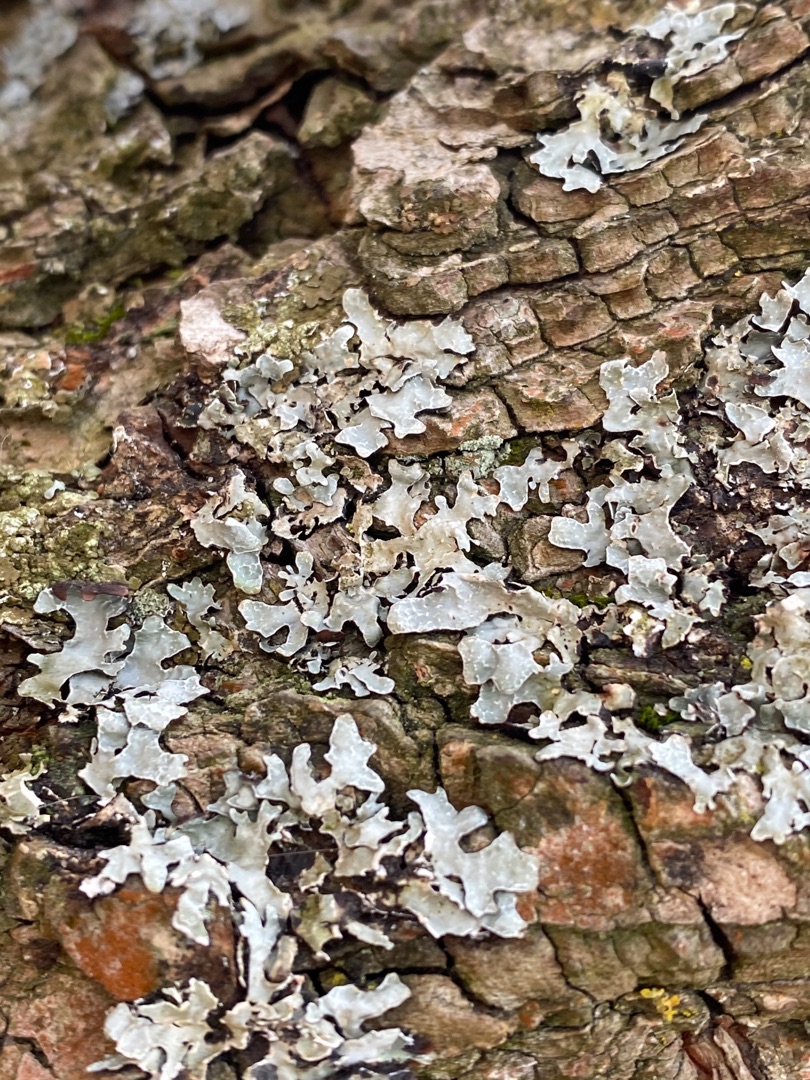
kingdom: Fungi
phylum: Ascomycota
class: Lecanoromycetes
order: Lecanorales
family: Parmeliaceae
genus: Parmelia
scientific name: Parmelia sulcata
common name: Rynket skållav
